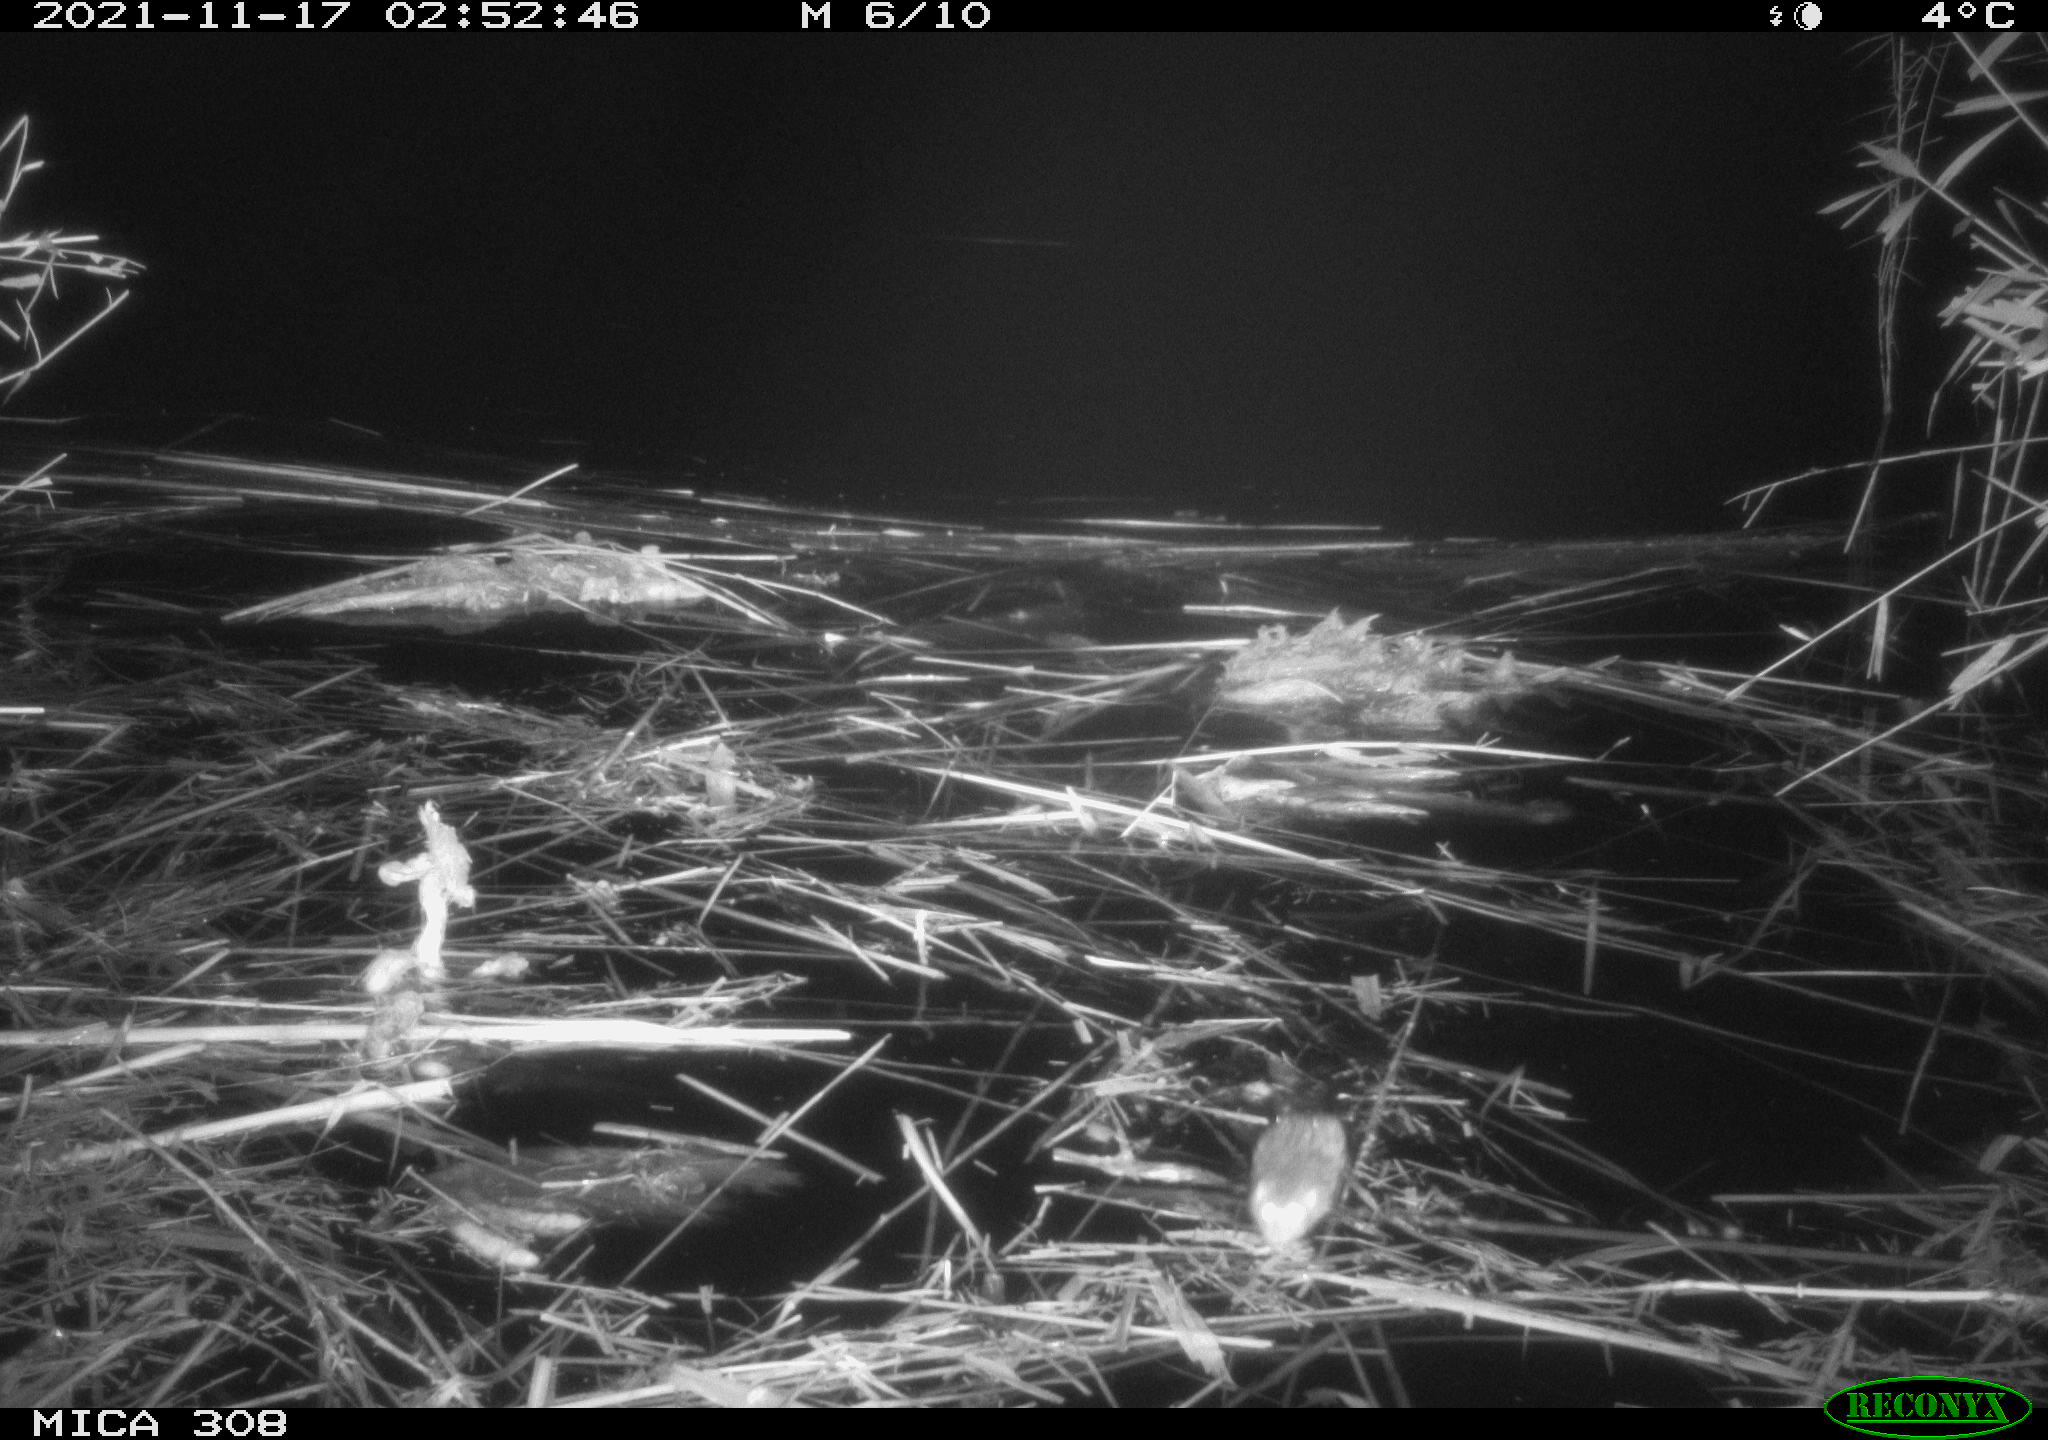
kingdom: Animalia
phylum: Chordata
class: Mammalia
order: Rodentia
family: Muridae
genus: Rattus
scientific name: Rattus norvegicus
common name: Brown rat
